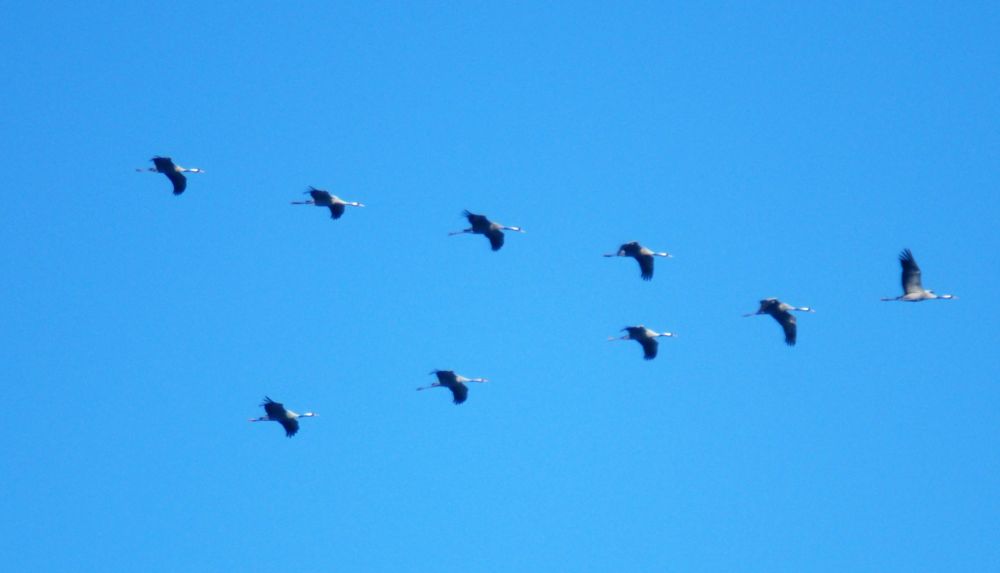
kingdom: Animalia
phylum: Chordata
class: Aves
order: Gruiformes
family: Gruidae
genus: Grus
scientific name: Grus grus
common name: Common crane
